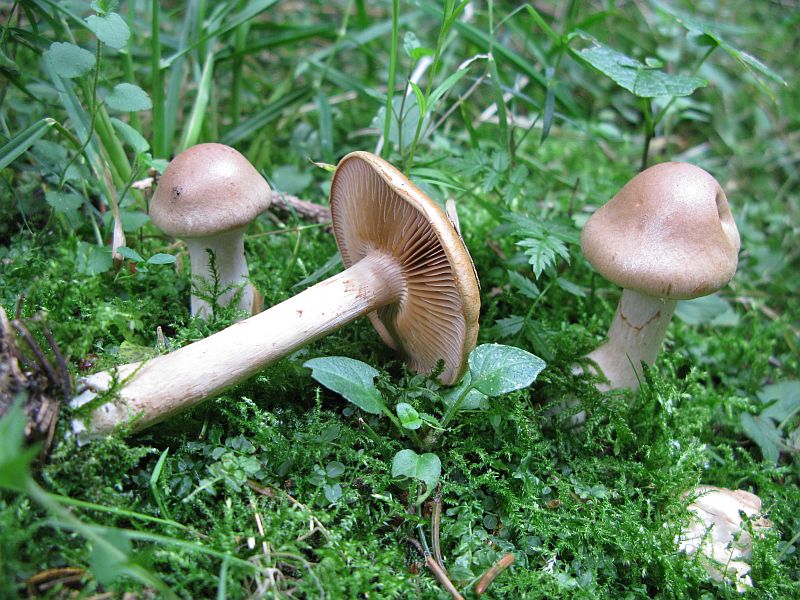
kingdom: Fungi
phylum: Basidiomycota
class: Agaricomycetes
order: Agaricales
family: Cortinariaceae
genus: Cortinarius
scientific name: Cortinarius tabularis
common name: lerbrun slørhat
